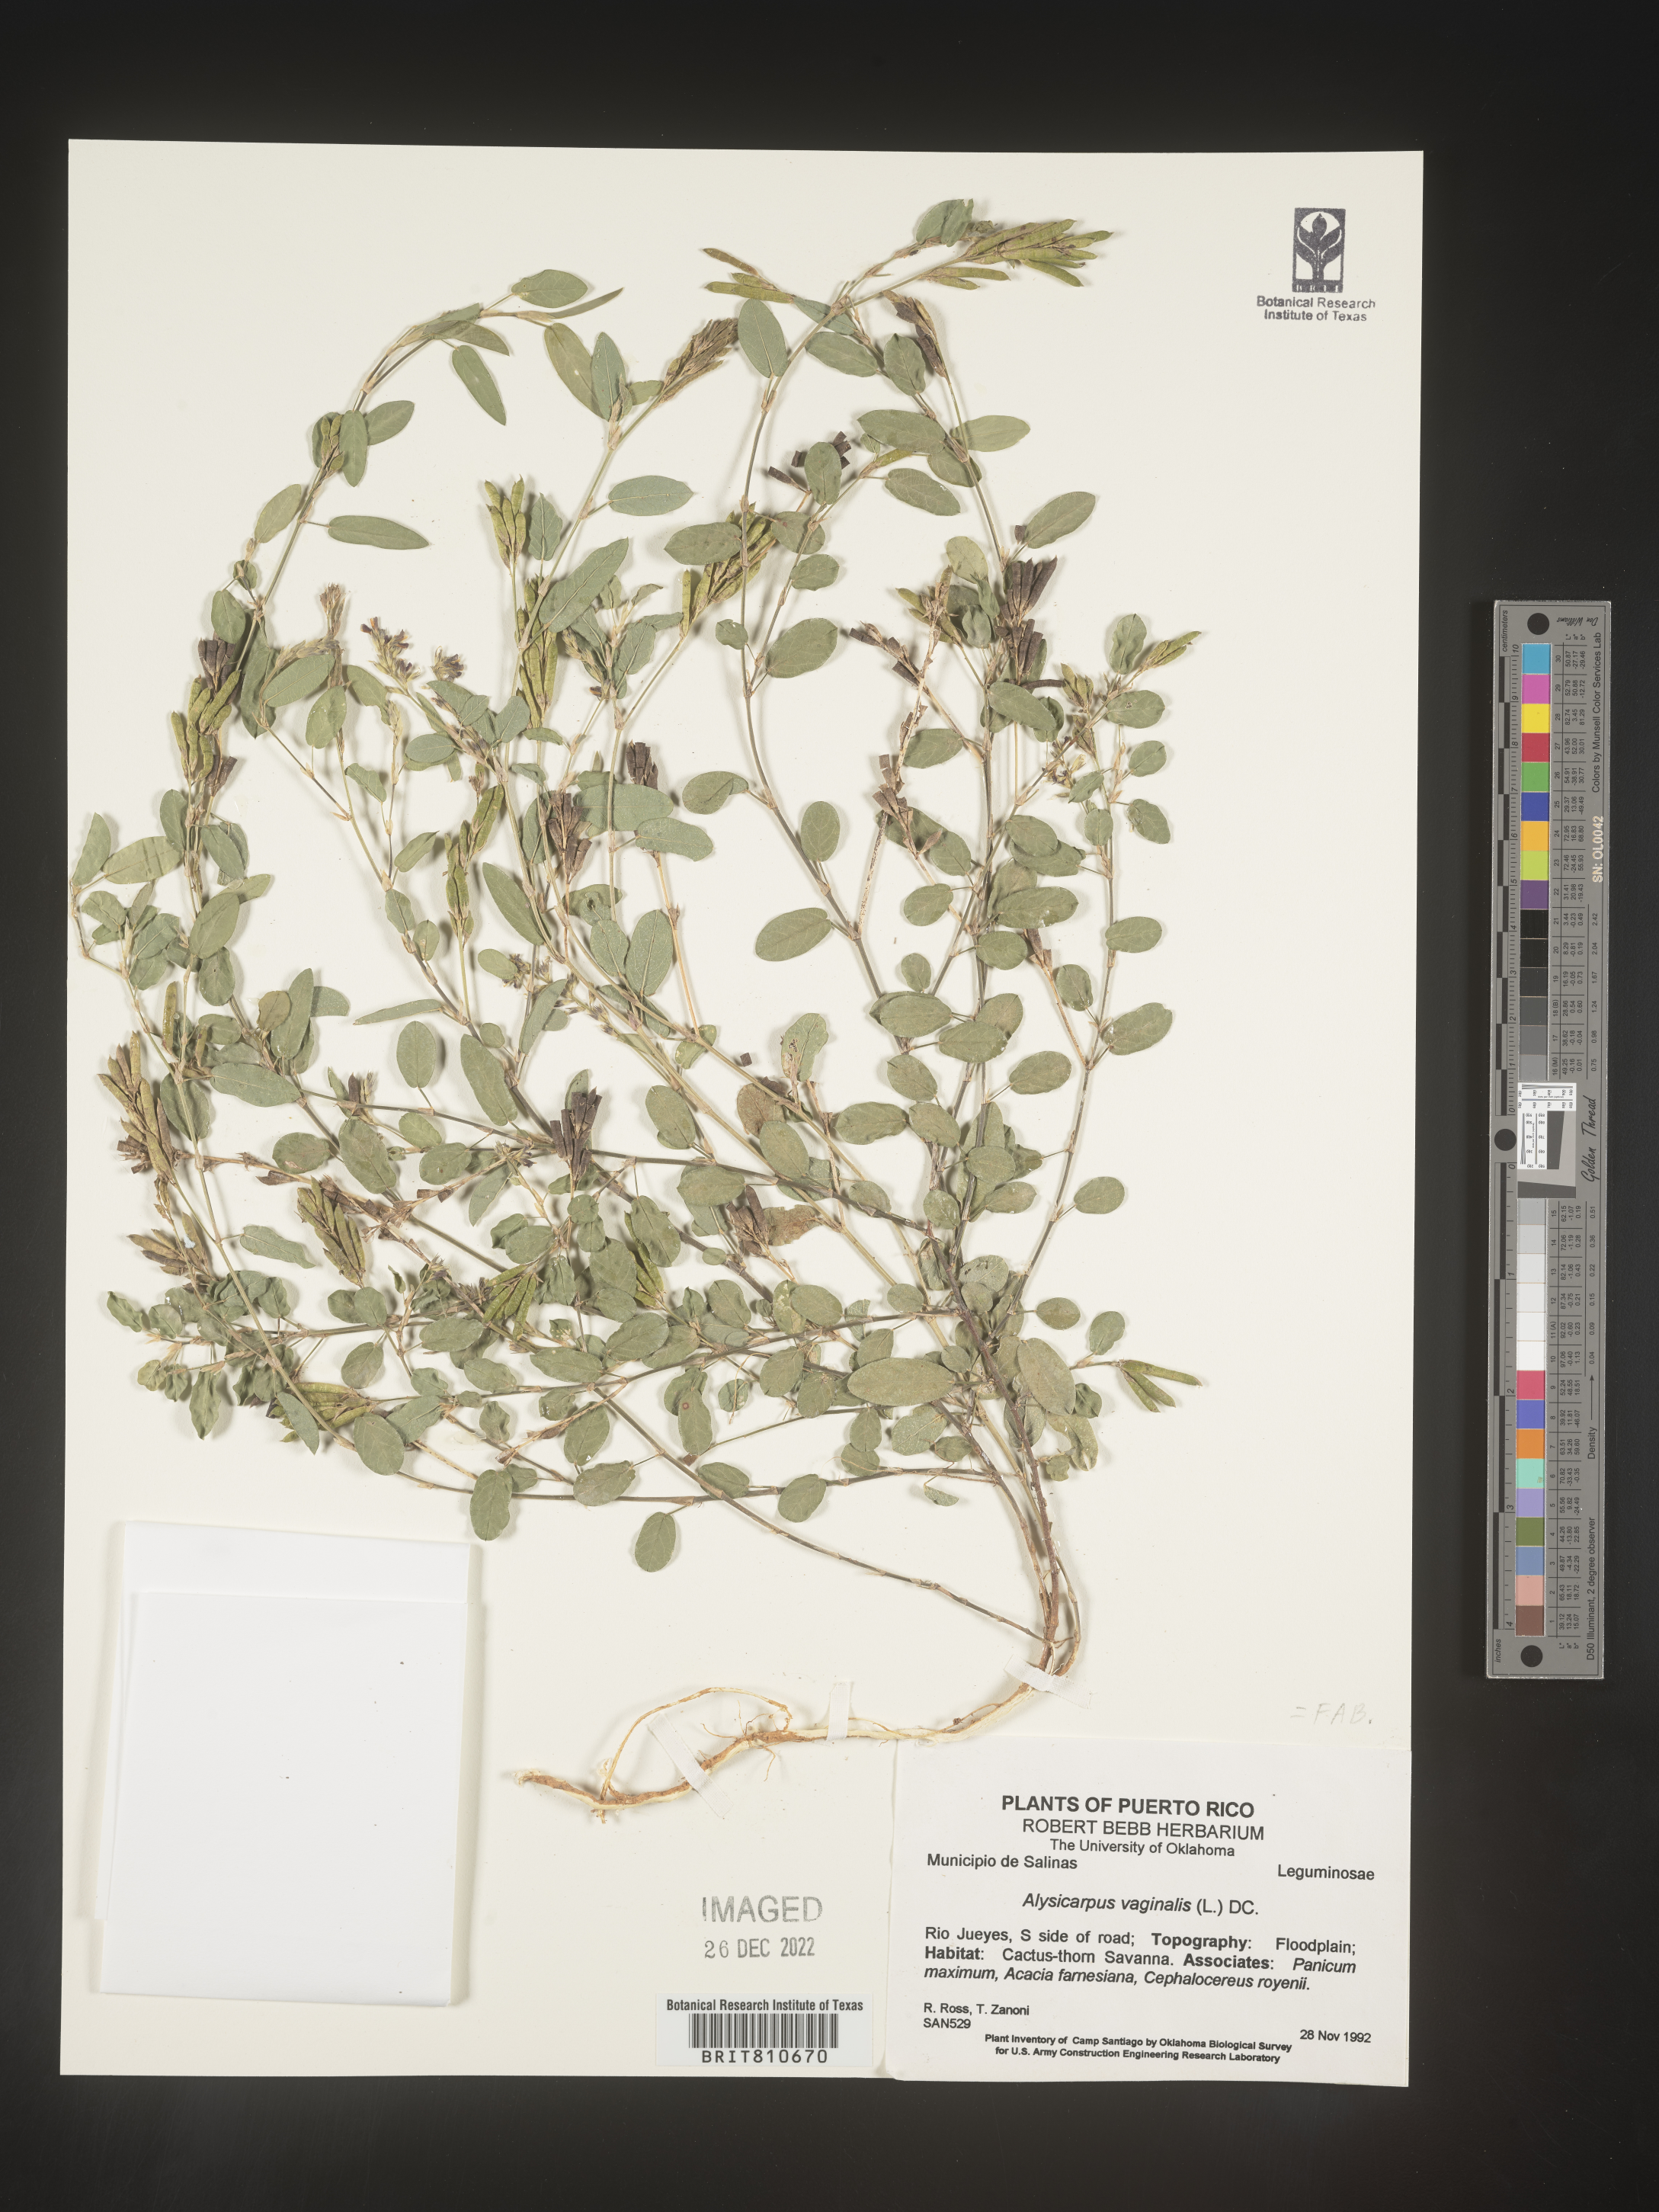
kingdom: Plantae
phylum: Tracheophyta
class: Magnoliopsida
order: Fabales
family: Fabaceae
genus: Alysicarpus
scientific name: Alysicarpus vaginalis
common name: White moneywort
